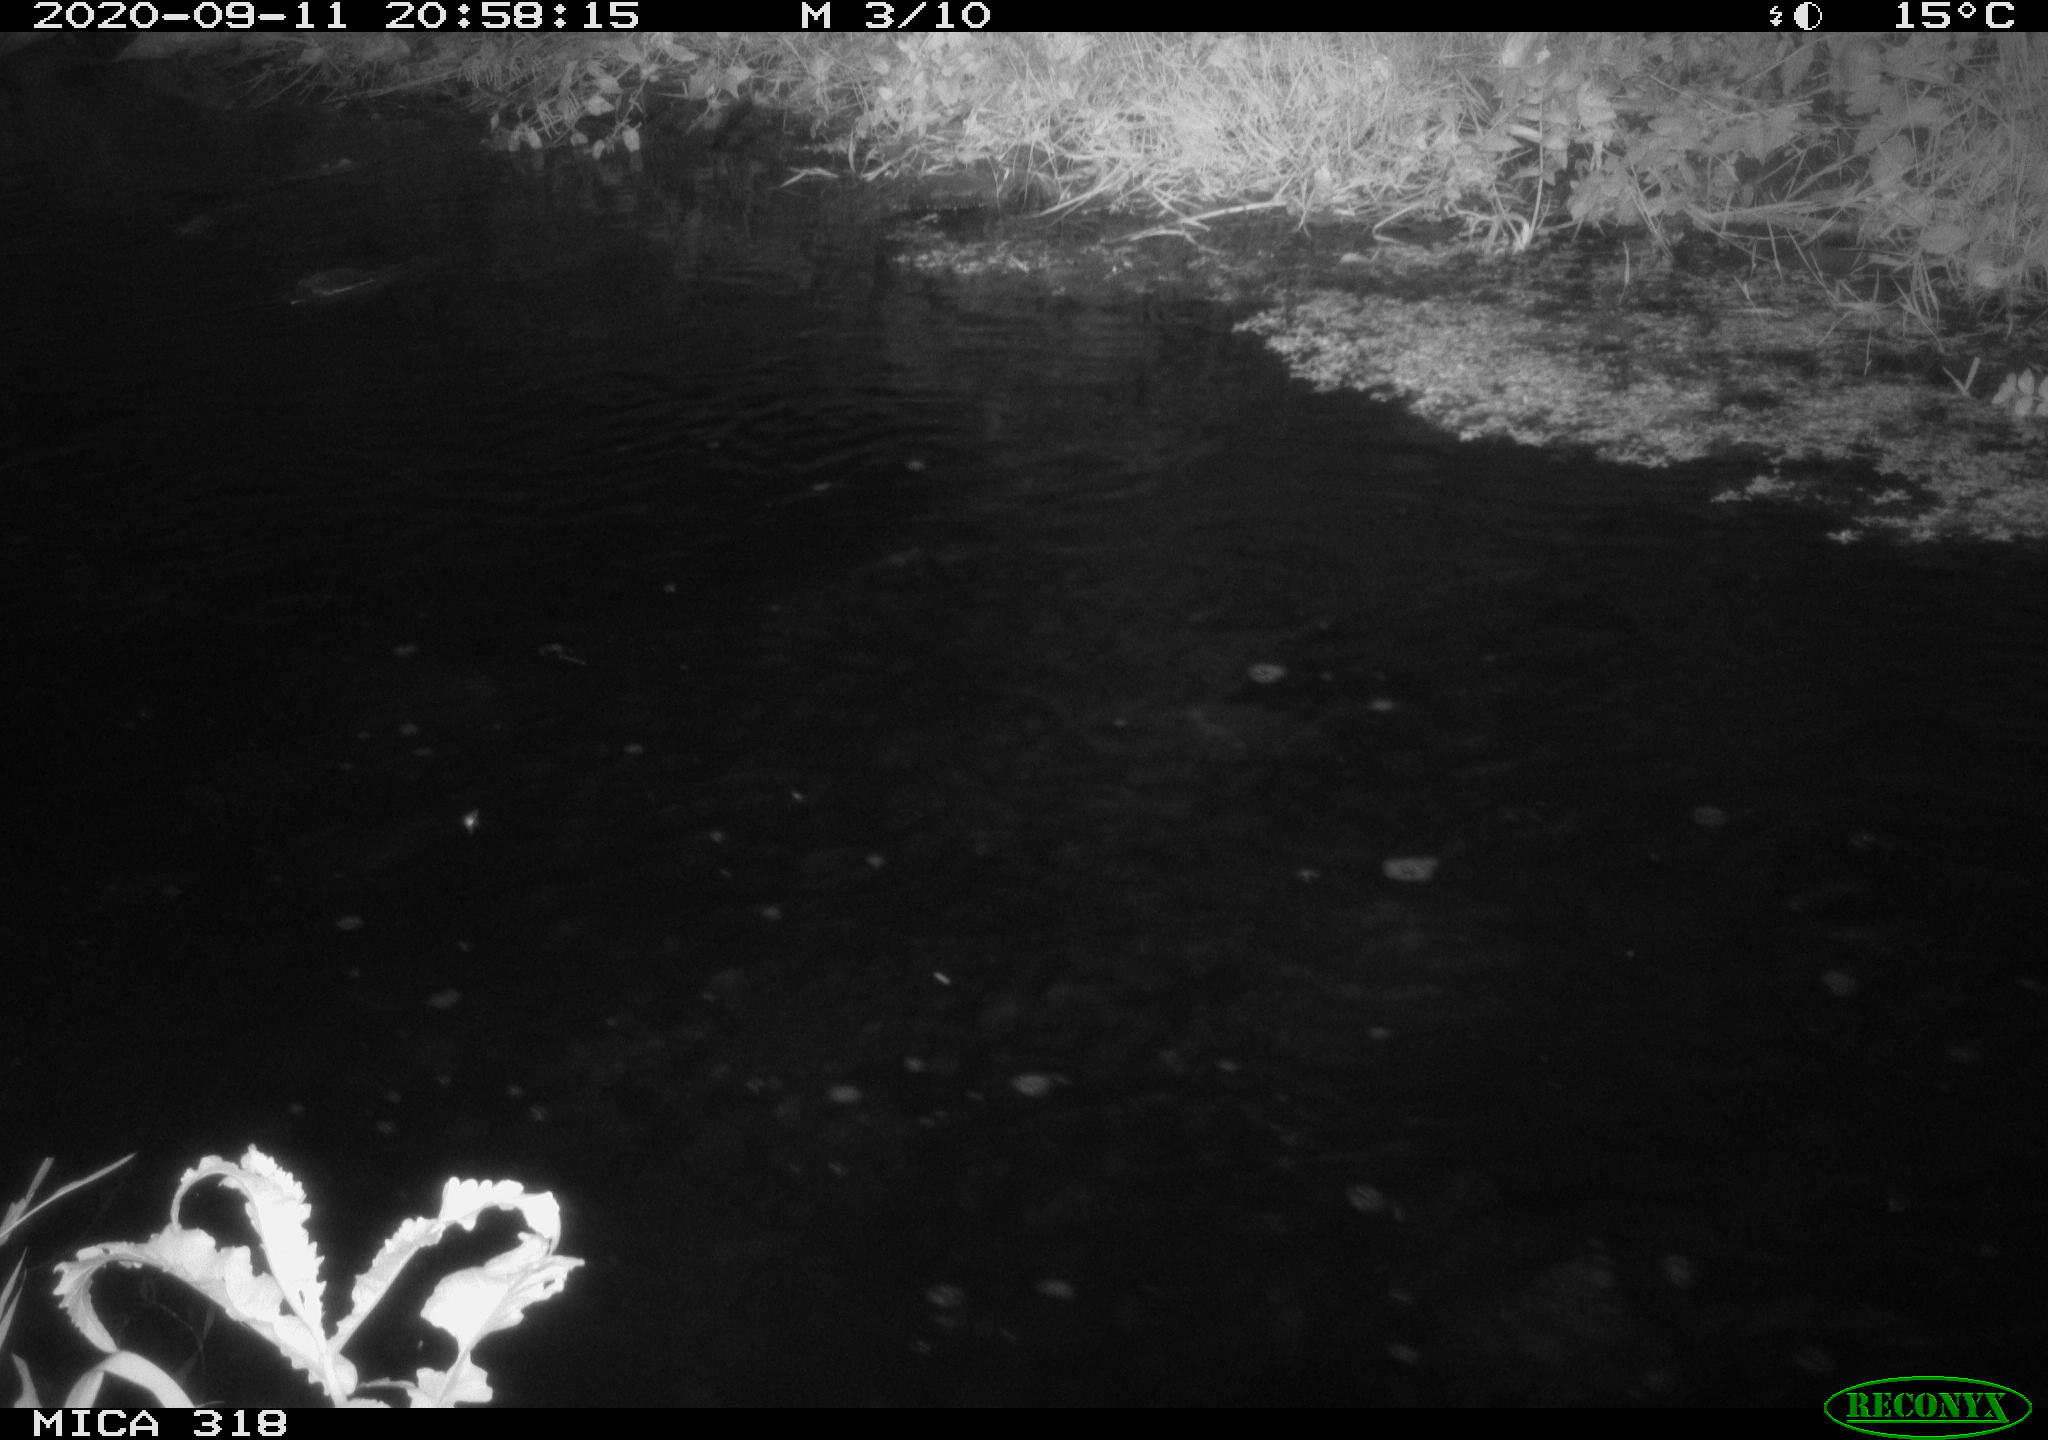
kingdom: Animalia
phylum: Chordata
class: Mammalia
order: Rodentia
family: Muridae
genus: Rattus
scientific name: Rattus norvegicus
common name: Brown rat
